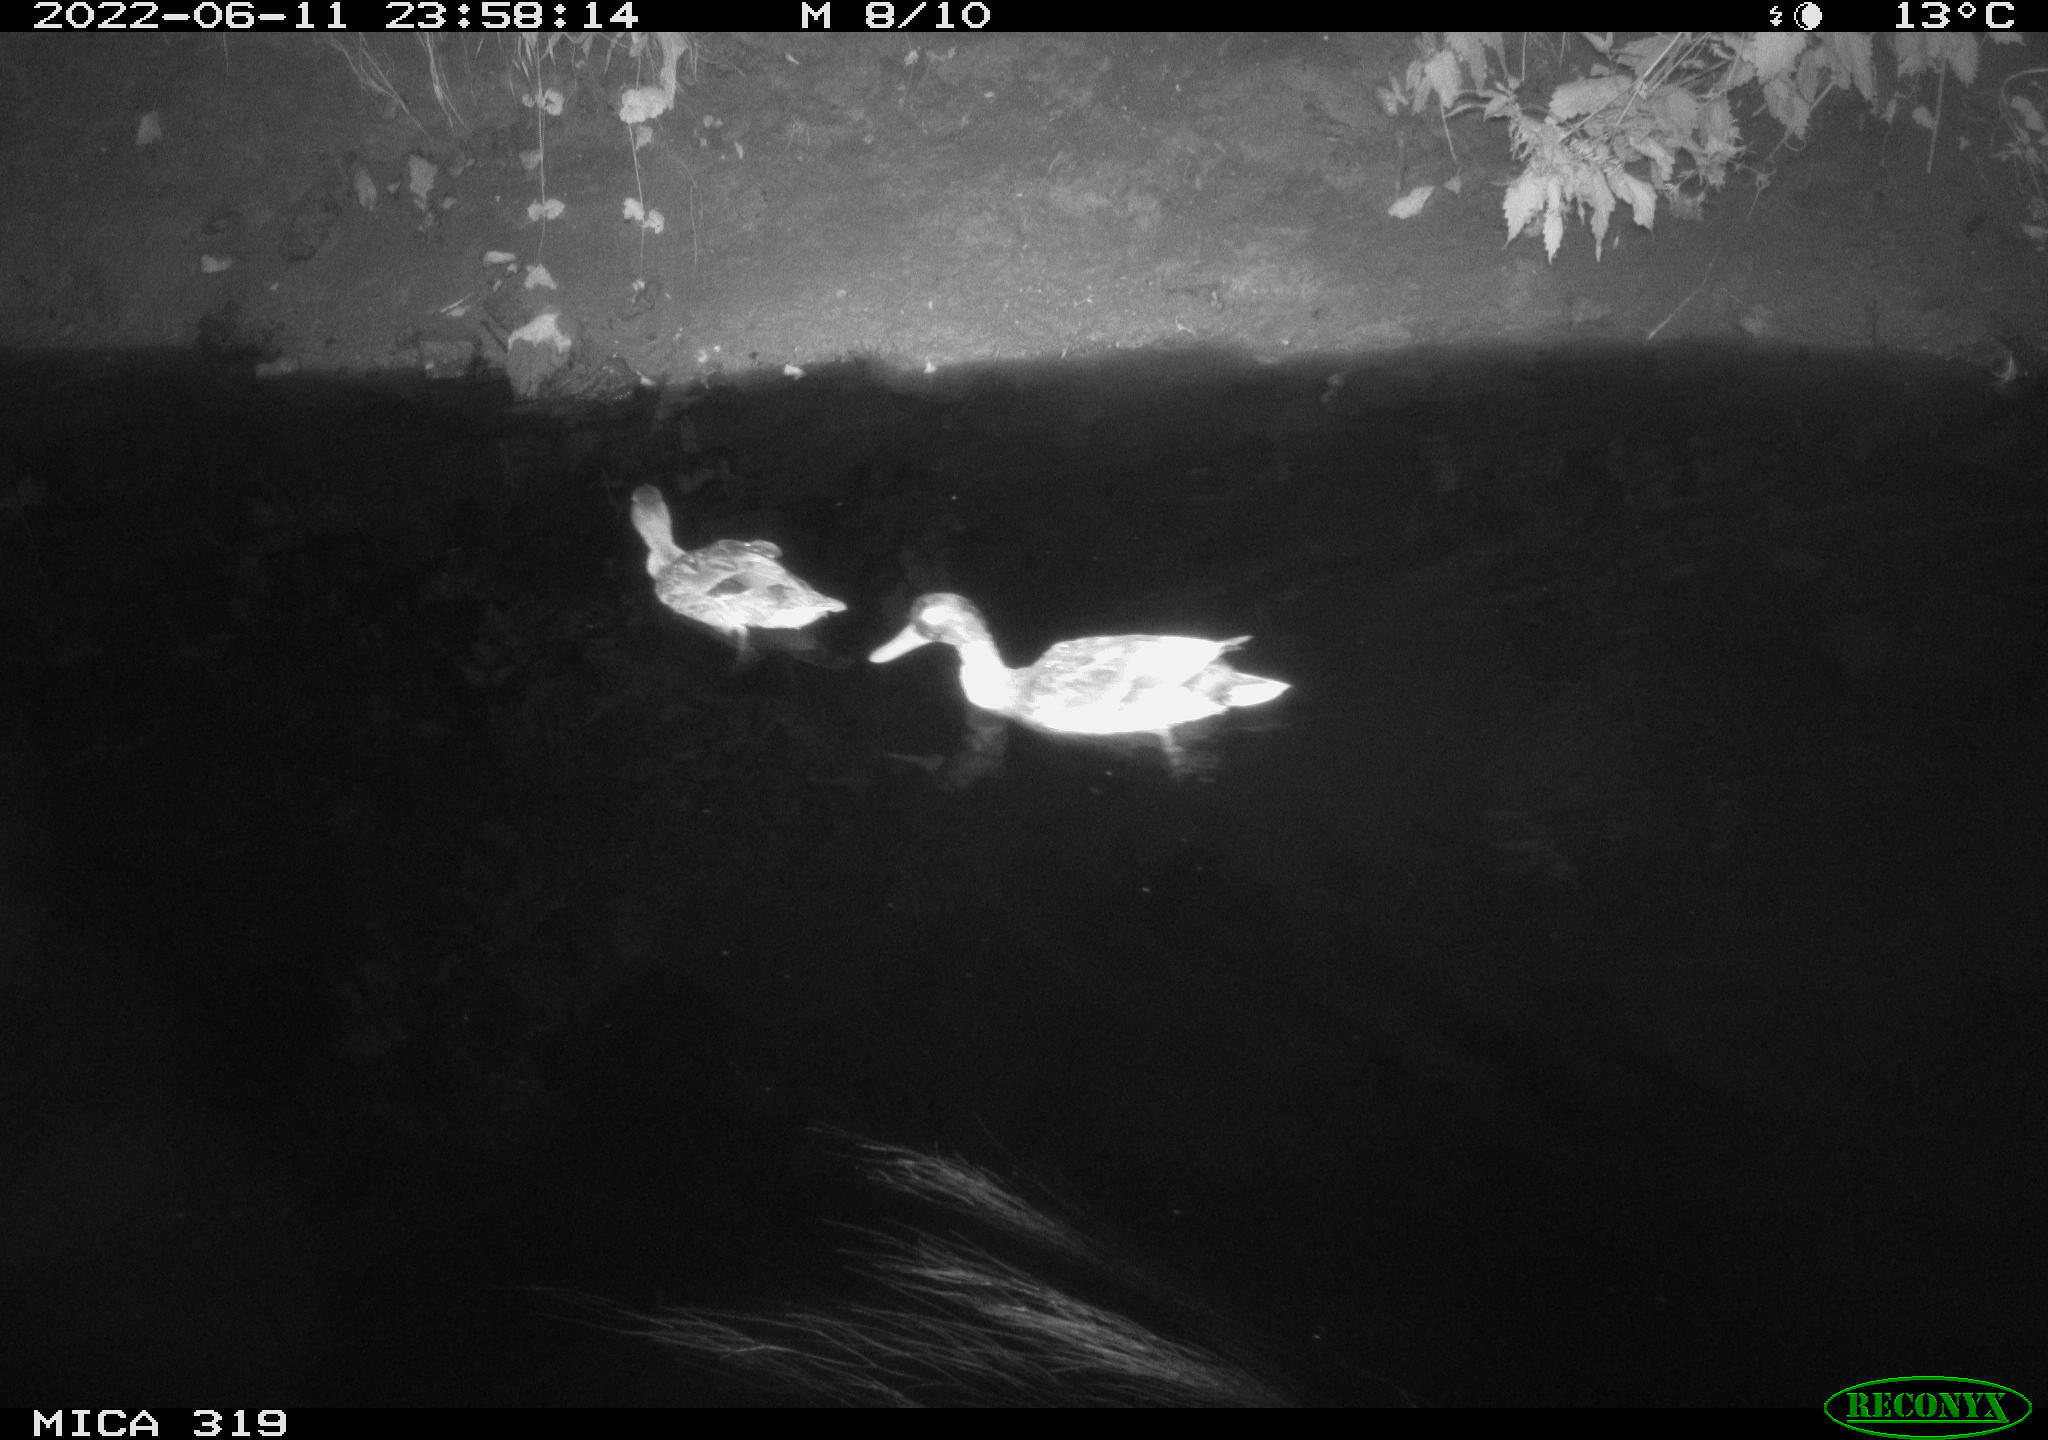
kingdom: Animalia
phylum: Chordata
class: Aves
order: Anseriformes
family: Anatidae
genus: Anas
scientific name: Anas
